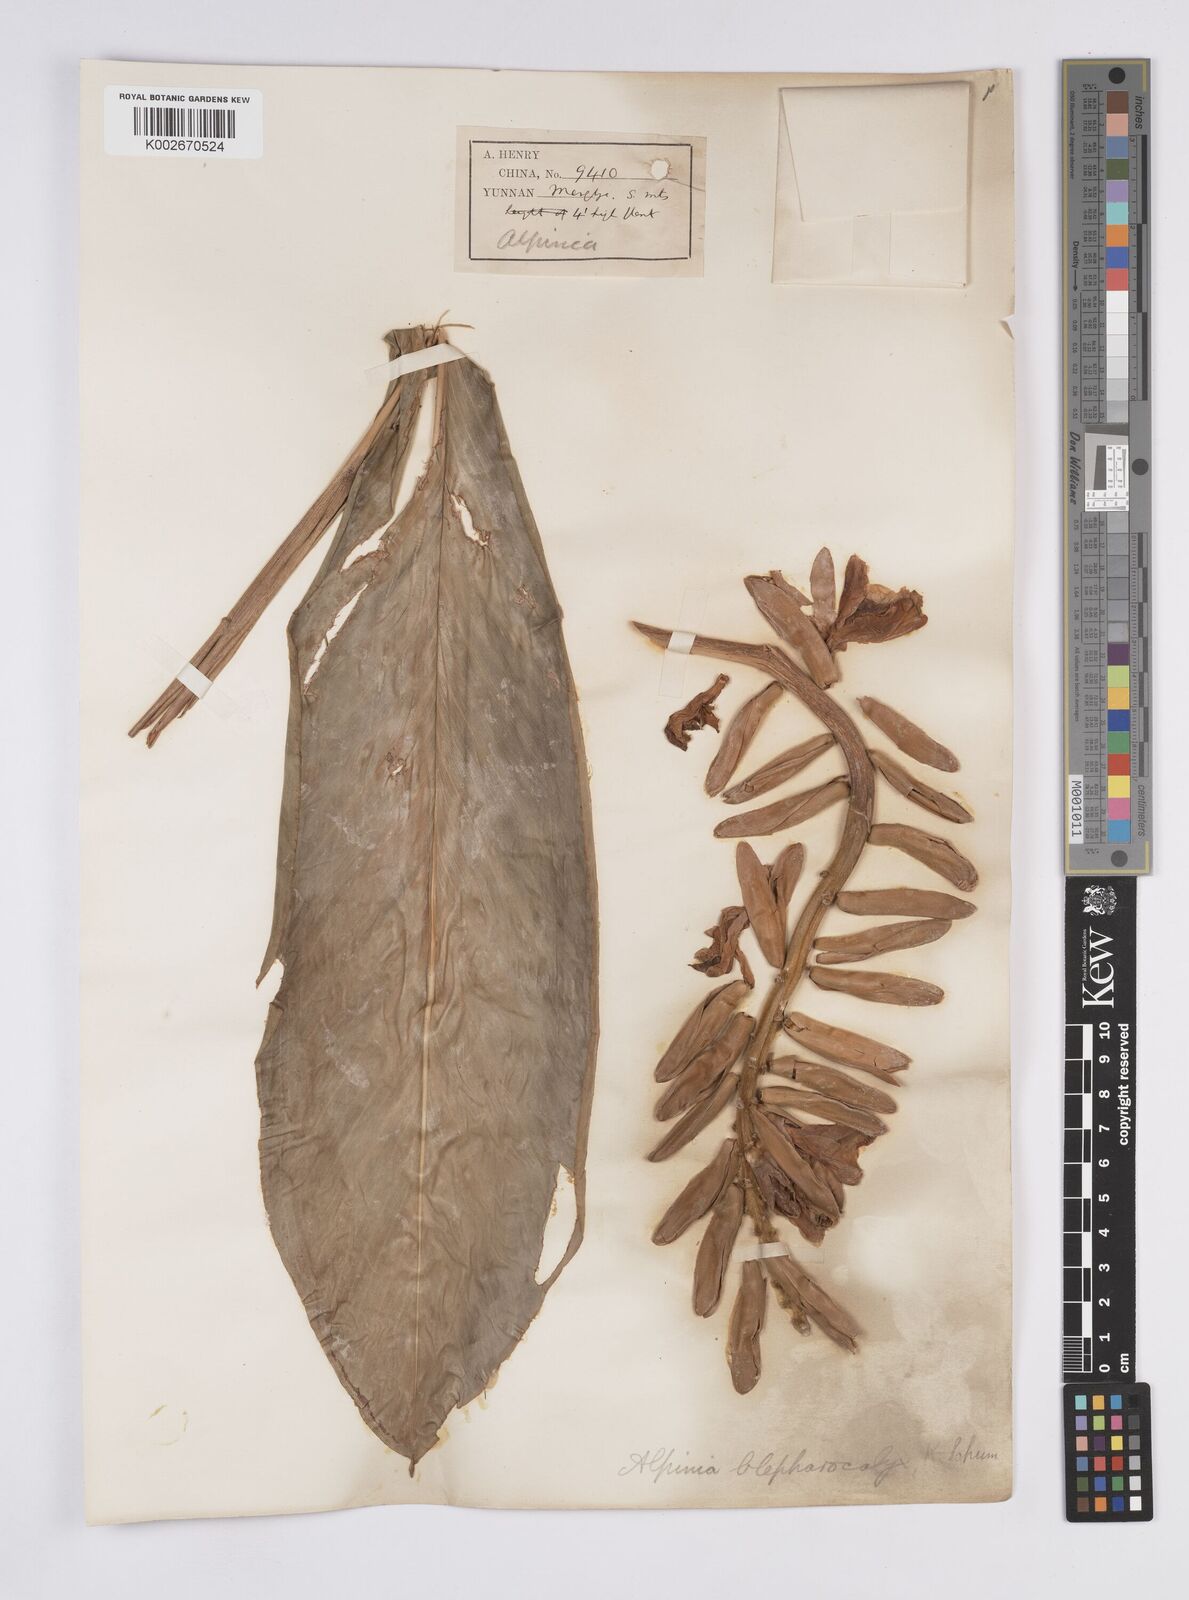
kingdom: Plantae
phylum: Tracheophyta
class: Liliopsida
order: Zingiberales
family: Zingiberaceae
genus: Alpinia
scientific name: Alpinia roxburghii
